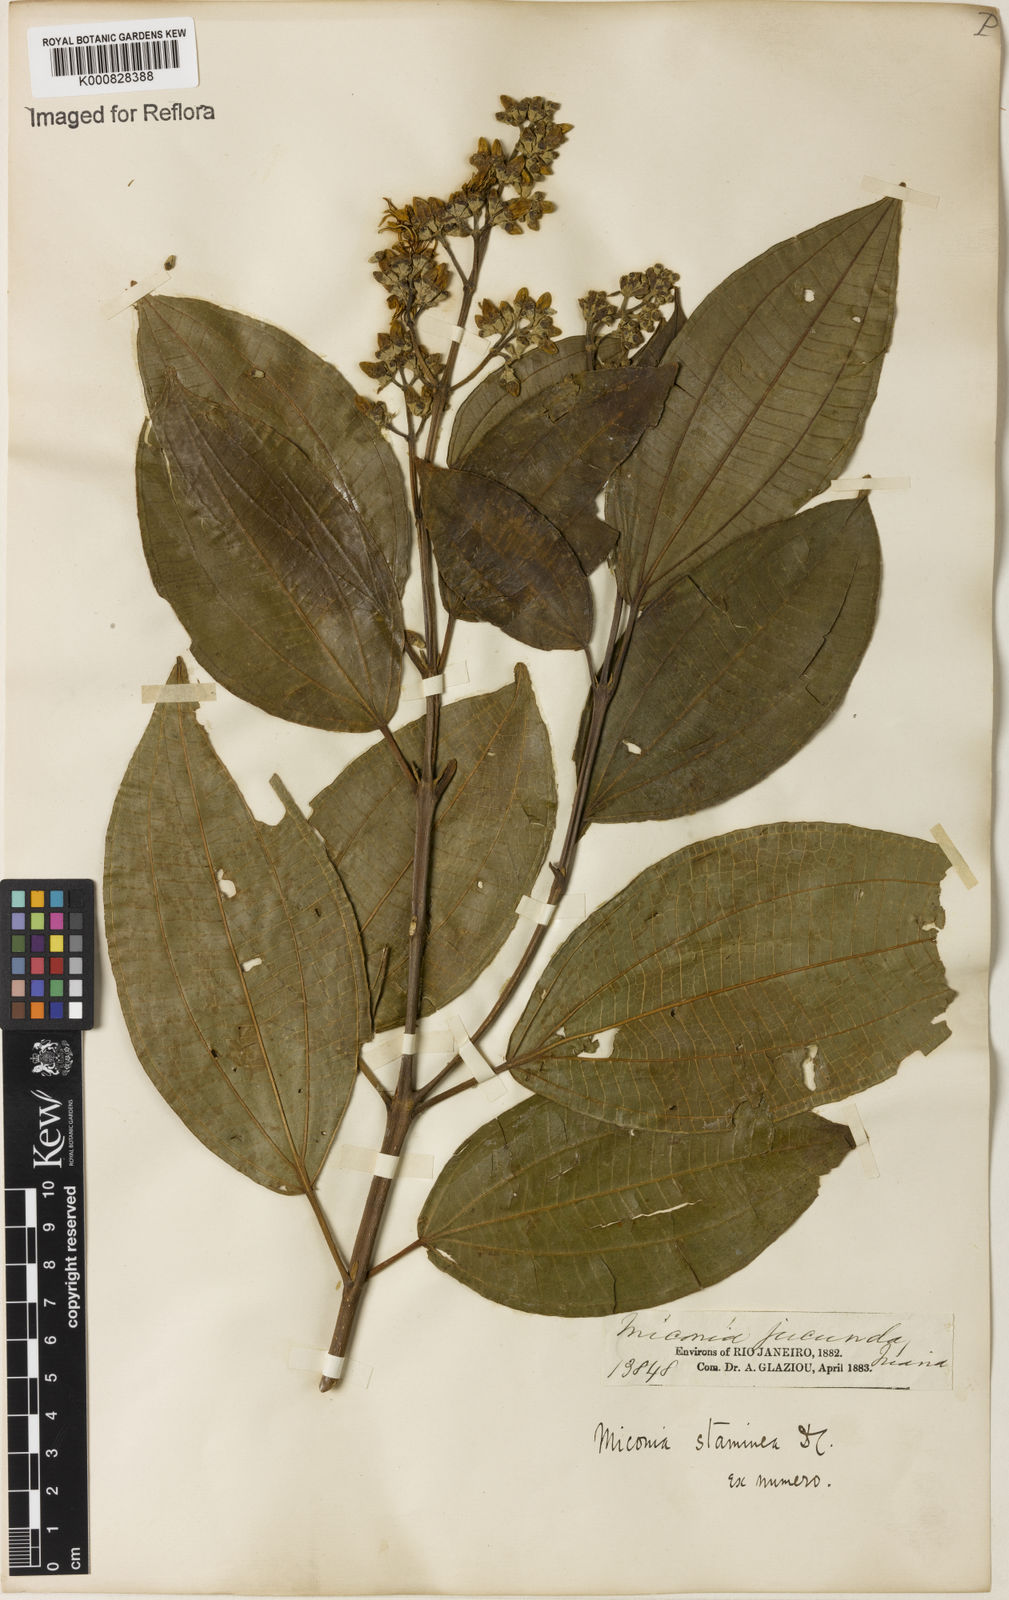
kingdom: Plantae
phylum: Tracheophyta
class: Magnoliopsida
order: Myrtales
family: Melastomataceae
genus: Miconia
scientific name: Miconia staminea
